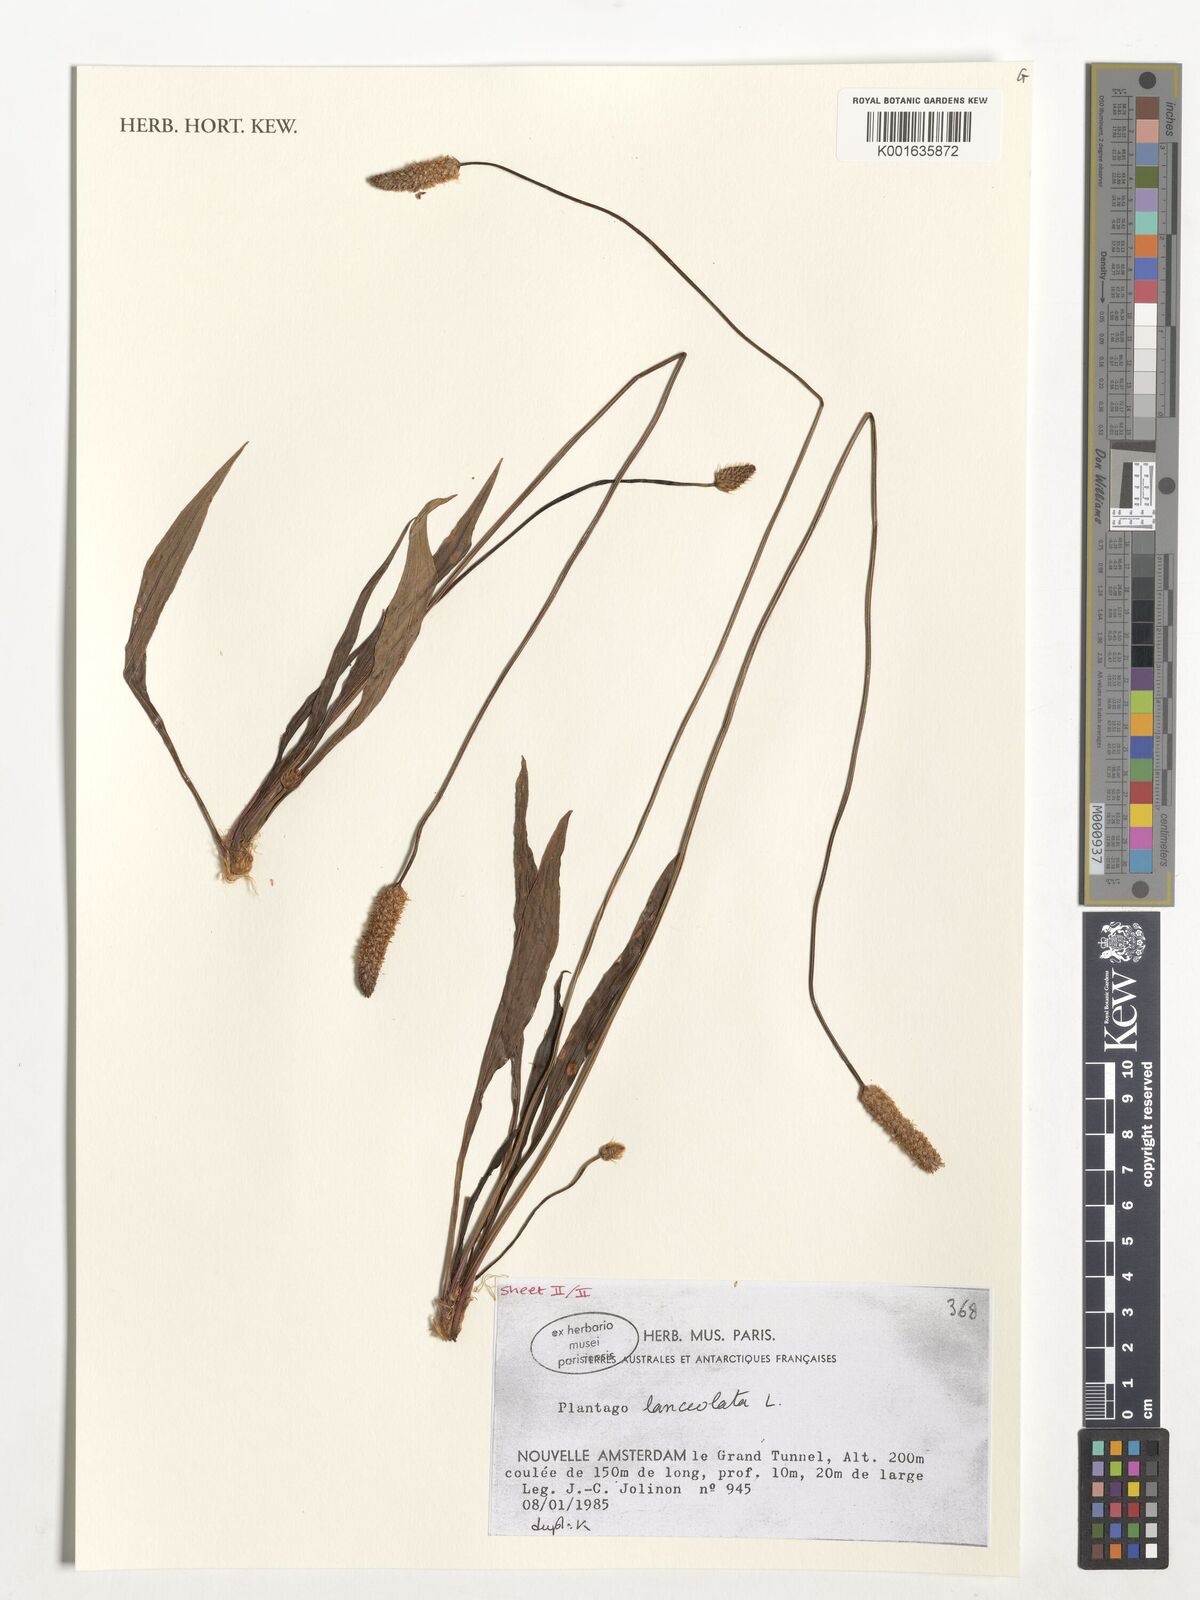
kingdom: Plantae
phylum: Tracheophyta
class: Magnoliopsida
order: Lamiales
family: Plantaginaceae
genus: Plantago
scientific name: Plantago lanceolata
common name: Ribwort plantain
